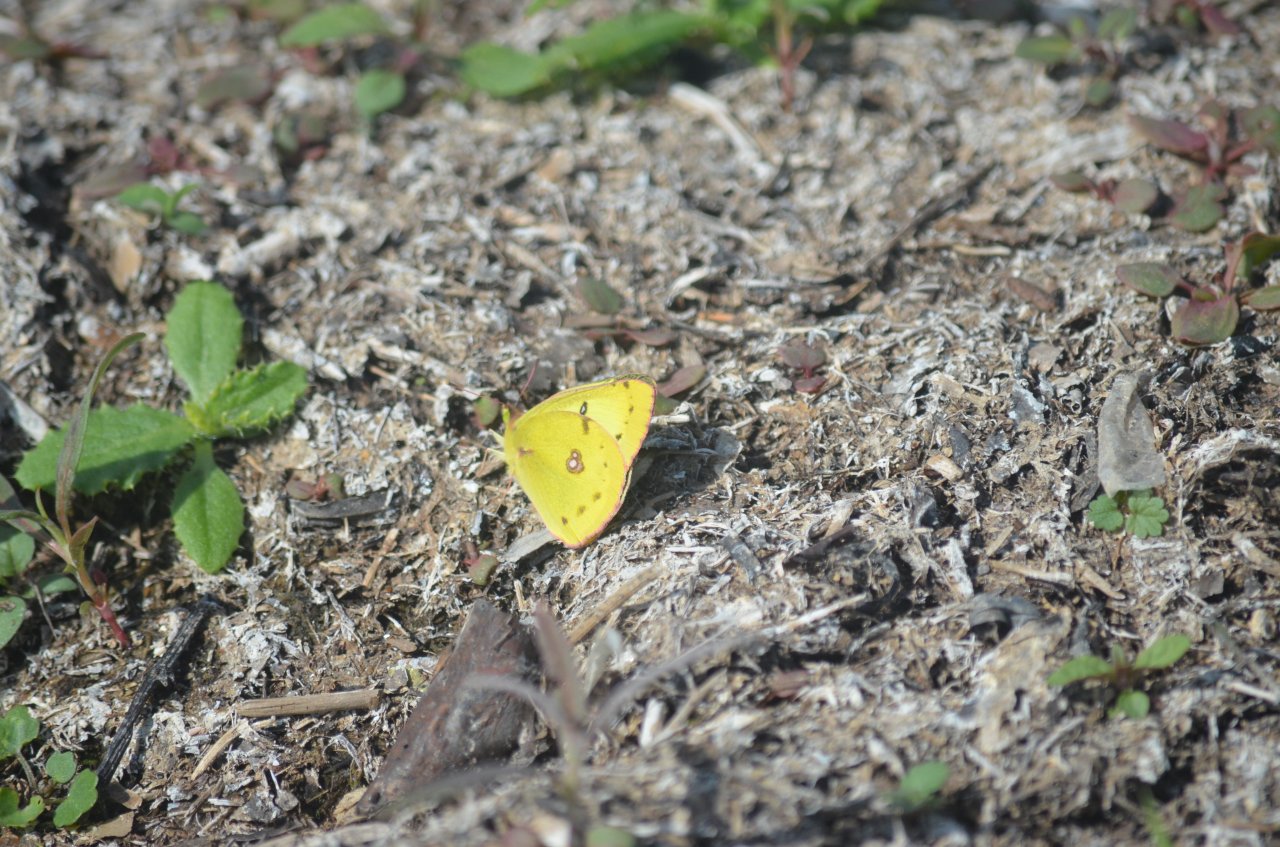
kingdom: Animalia
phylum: Arthropoda
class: Insecta
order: Lepidoptera
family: Pieridae
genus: Colias
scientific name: Colias philodice
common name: Clouded Sulphur
